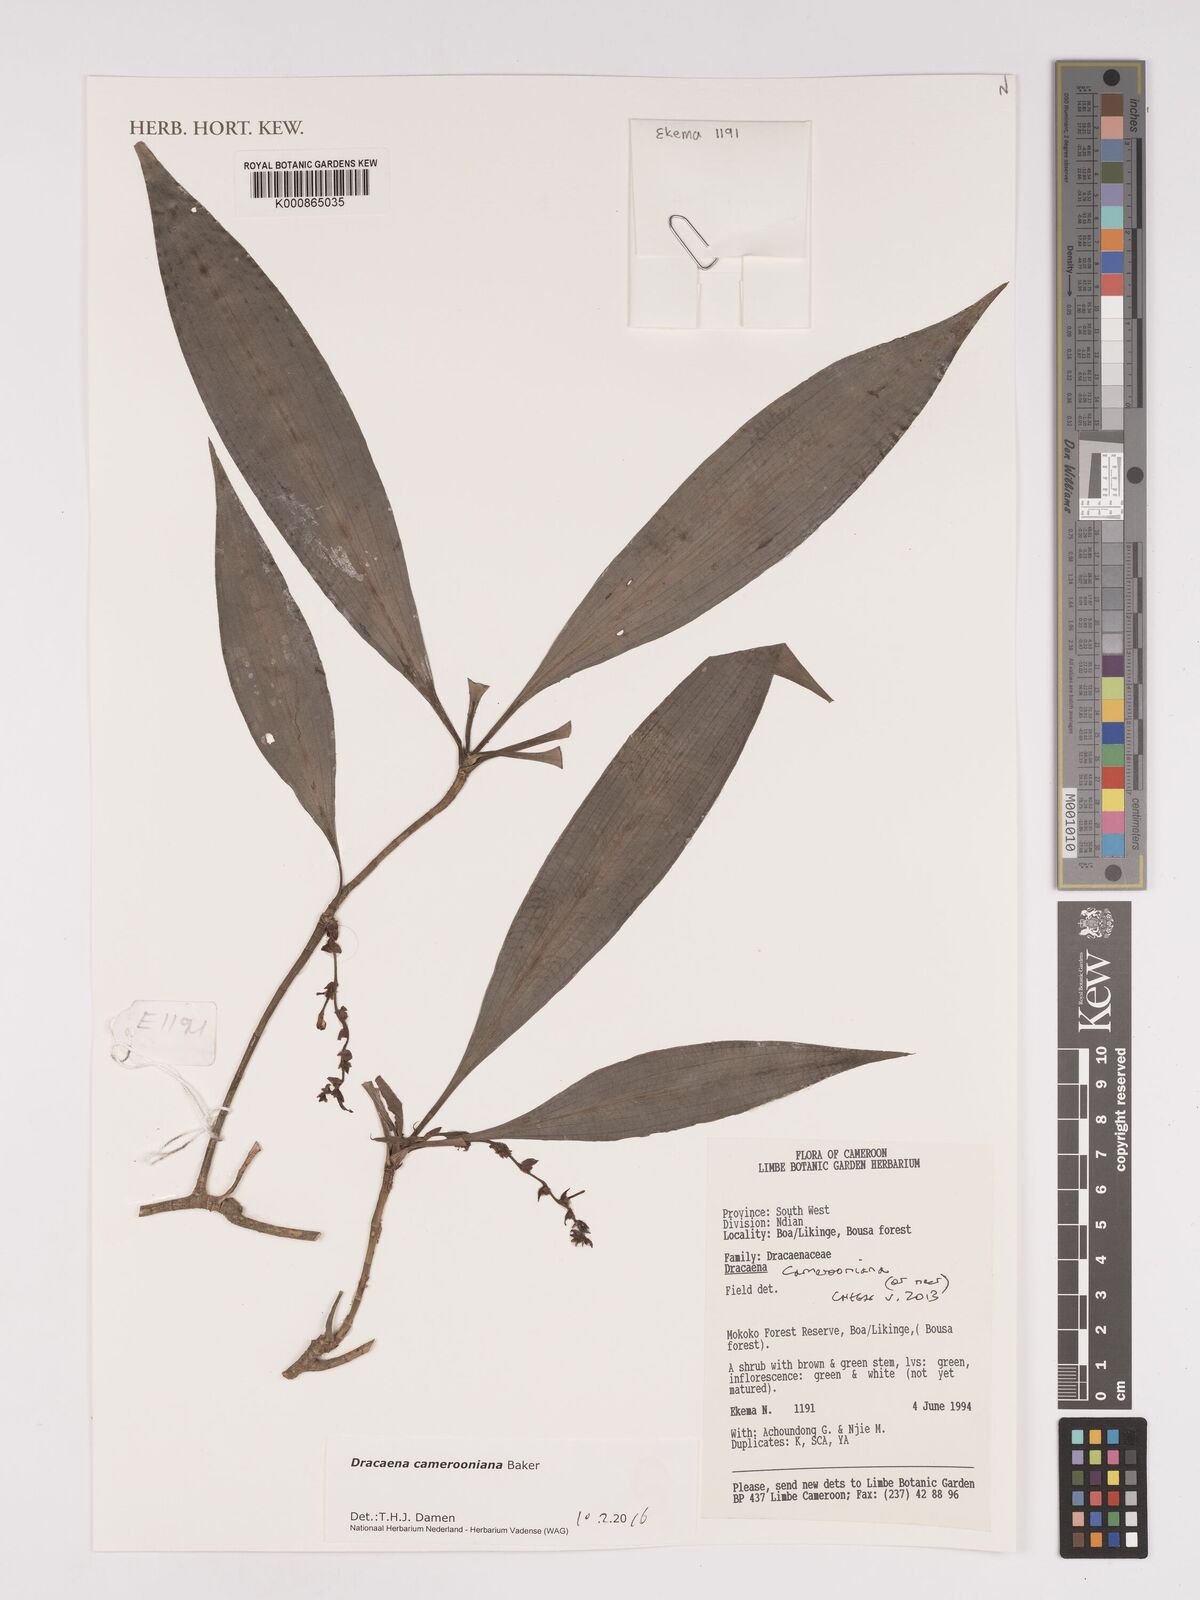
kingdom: Plantae
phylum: Tracheophyta
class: Liliopsida
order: Asparagales
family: Asparagaceae
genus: Dracaena
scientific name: Dracaena camerooniana
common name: Dragon tree
